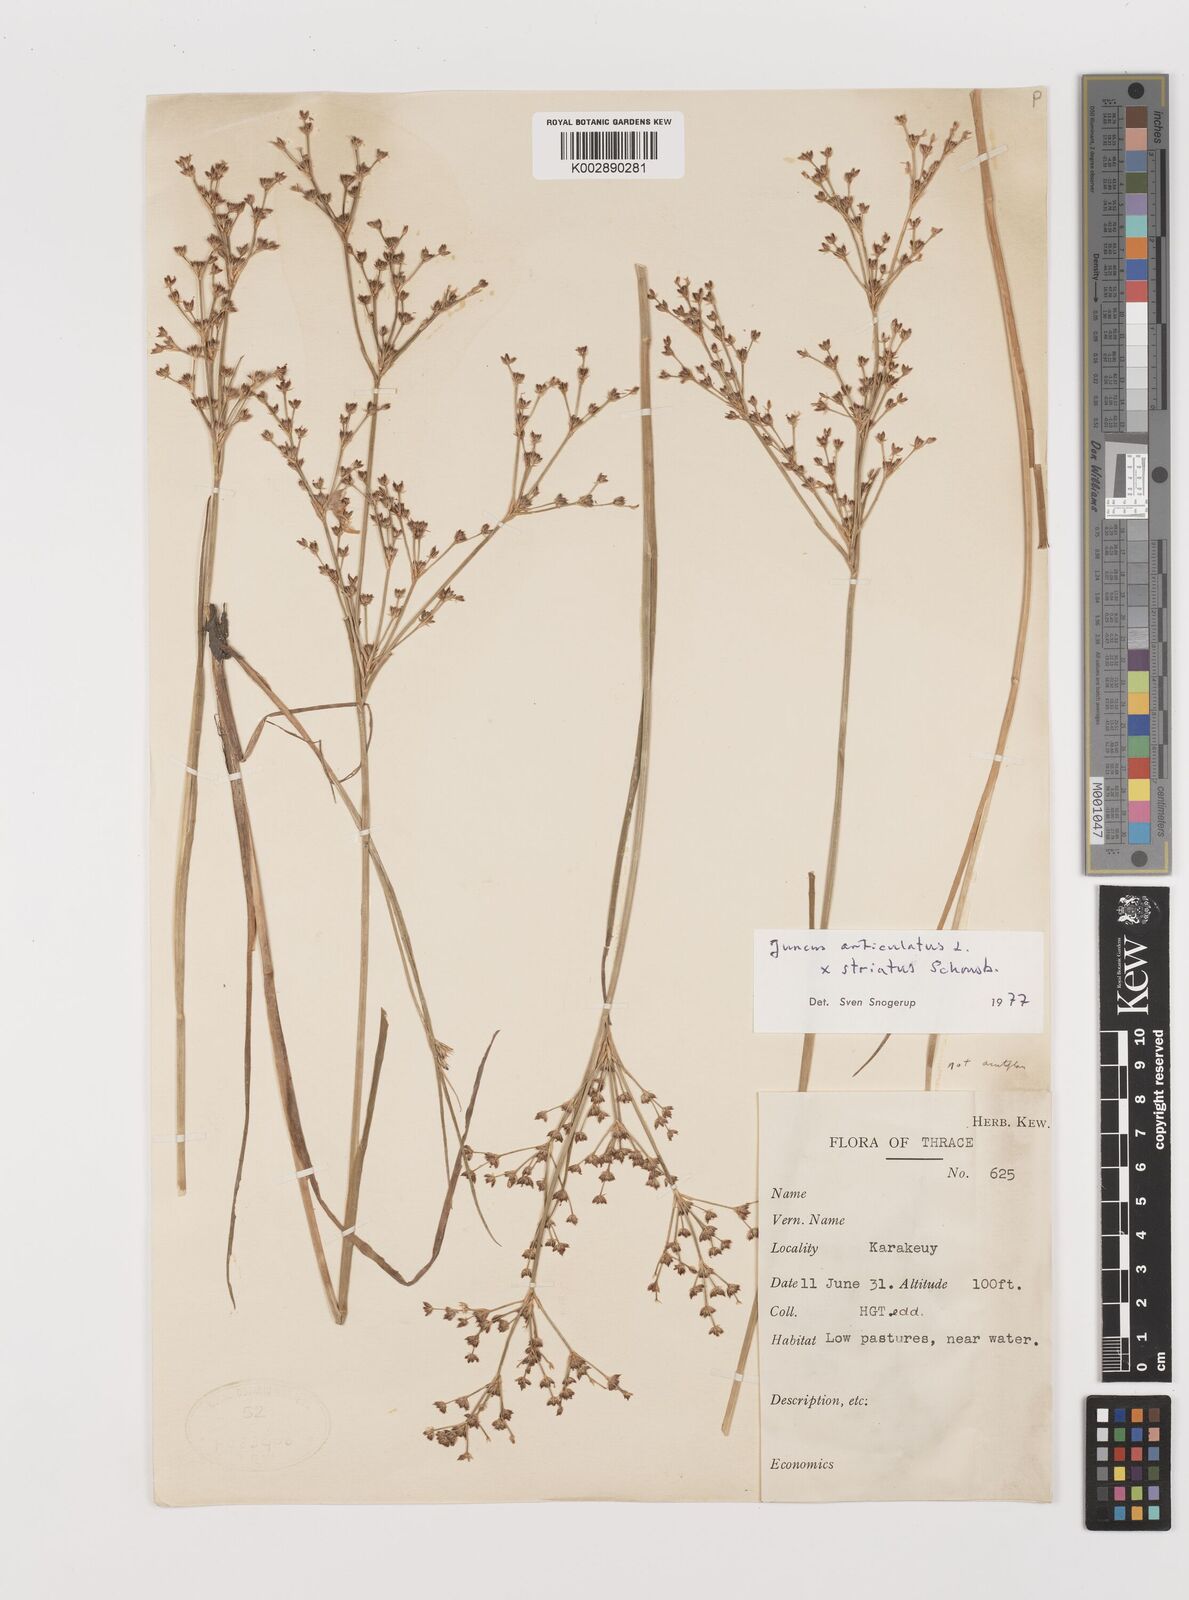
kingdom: Plantae
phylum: Tracheophyta
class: Liliopsida
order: Poales
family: Juncaceae
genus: Juncus
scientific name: Juncus articulatus
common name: Jointed rush
